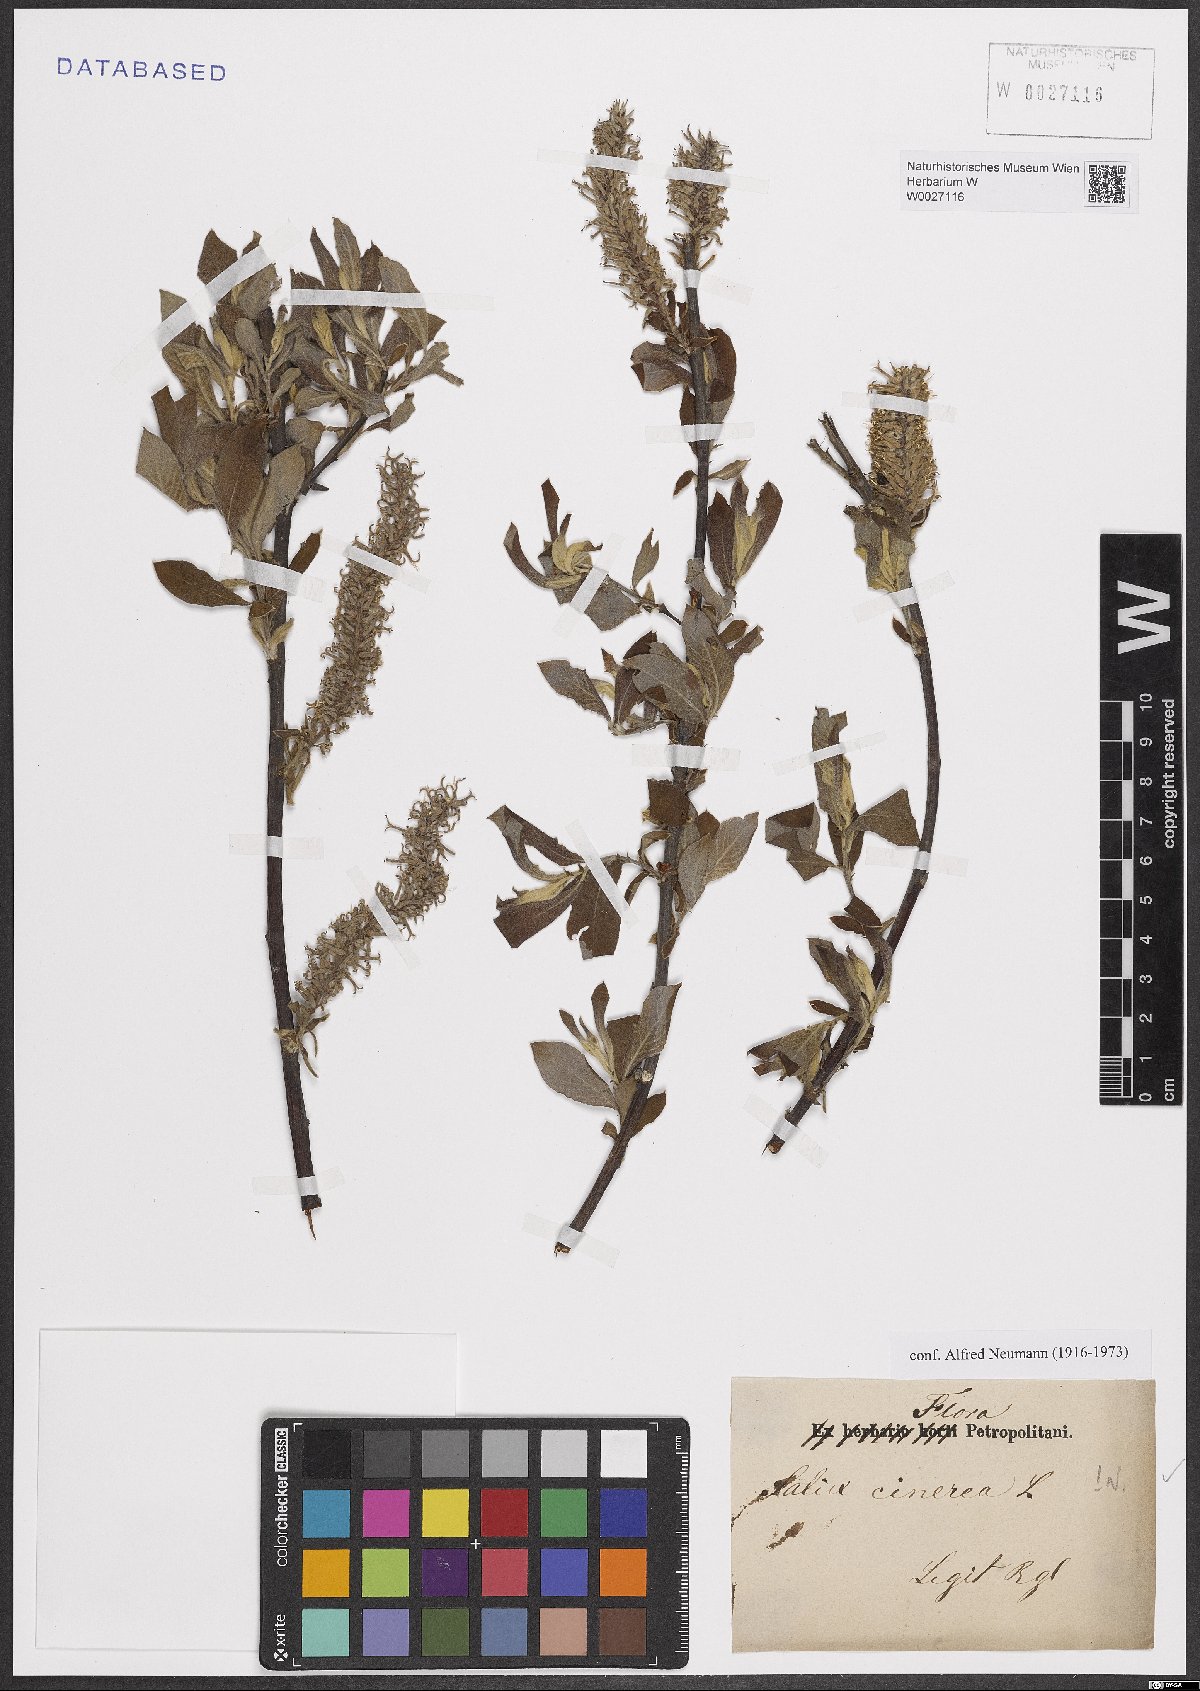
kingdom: Plantae
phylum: Tracheophyta
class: Magnoliopsida
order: Malpighiales
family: Salicaceae
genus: Salix
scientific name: Salix cinerea
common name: Common sallow
